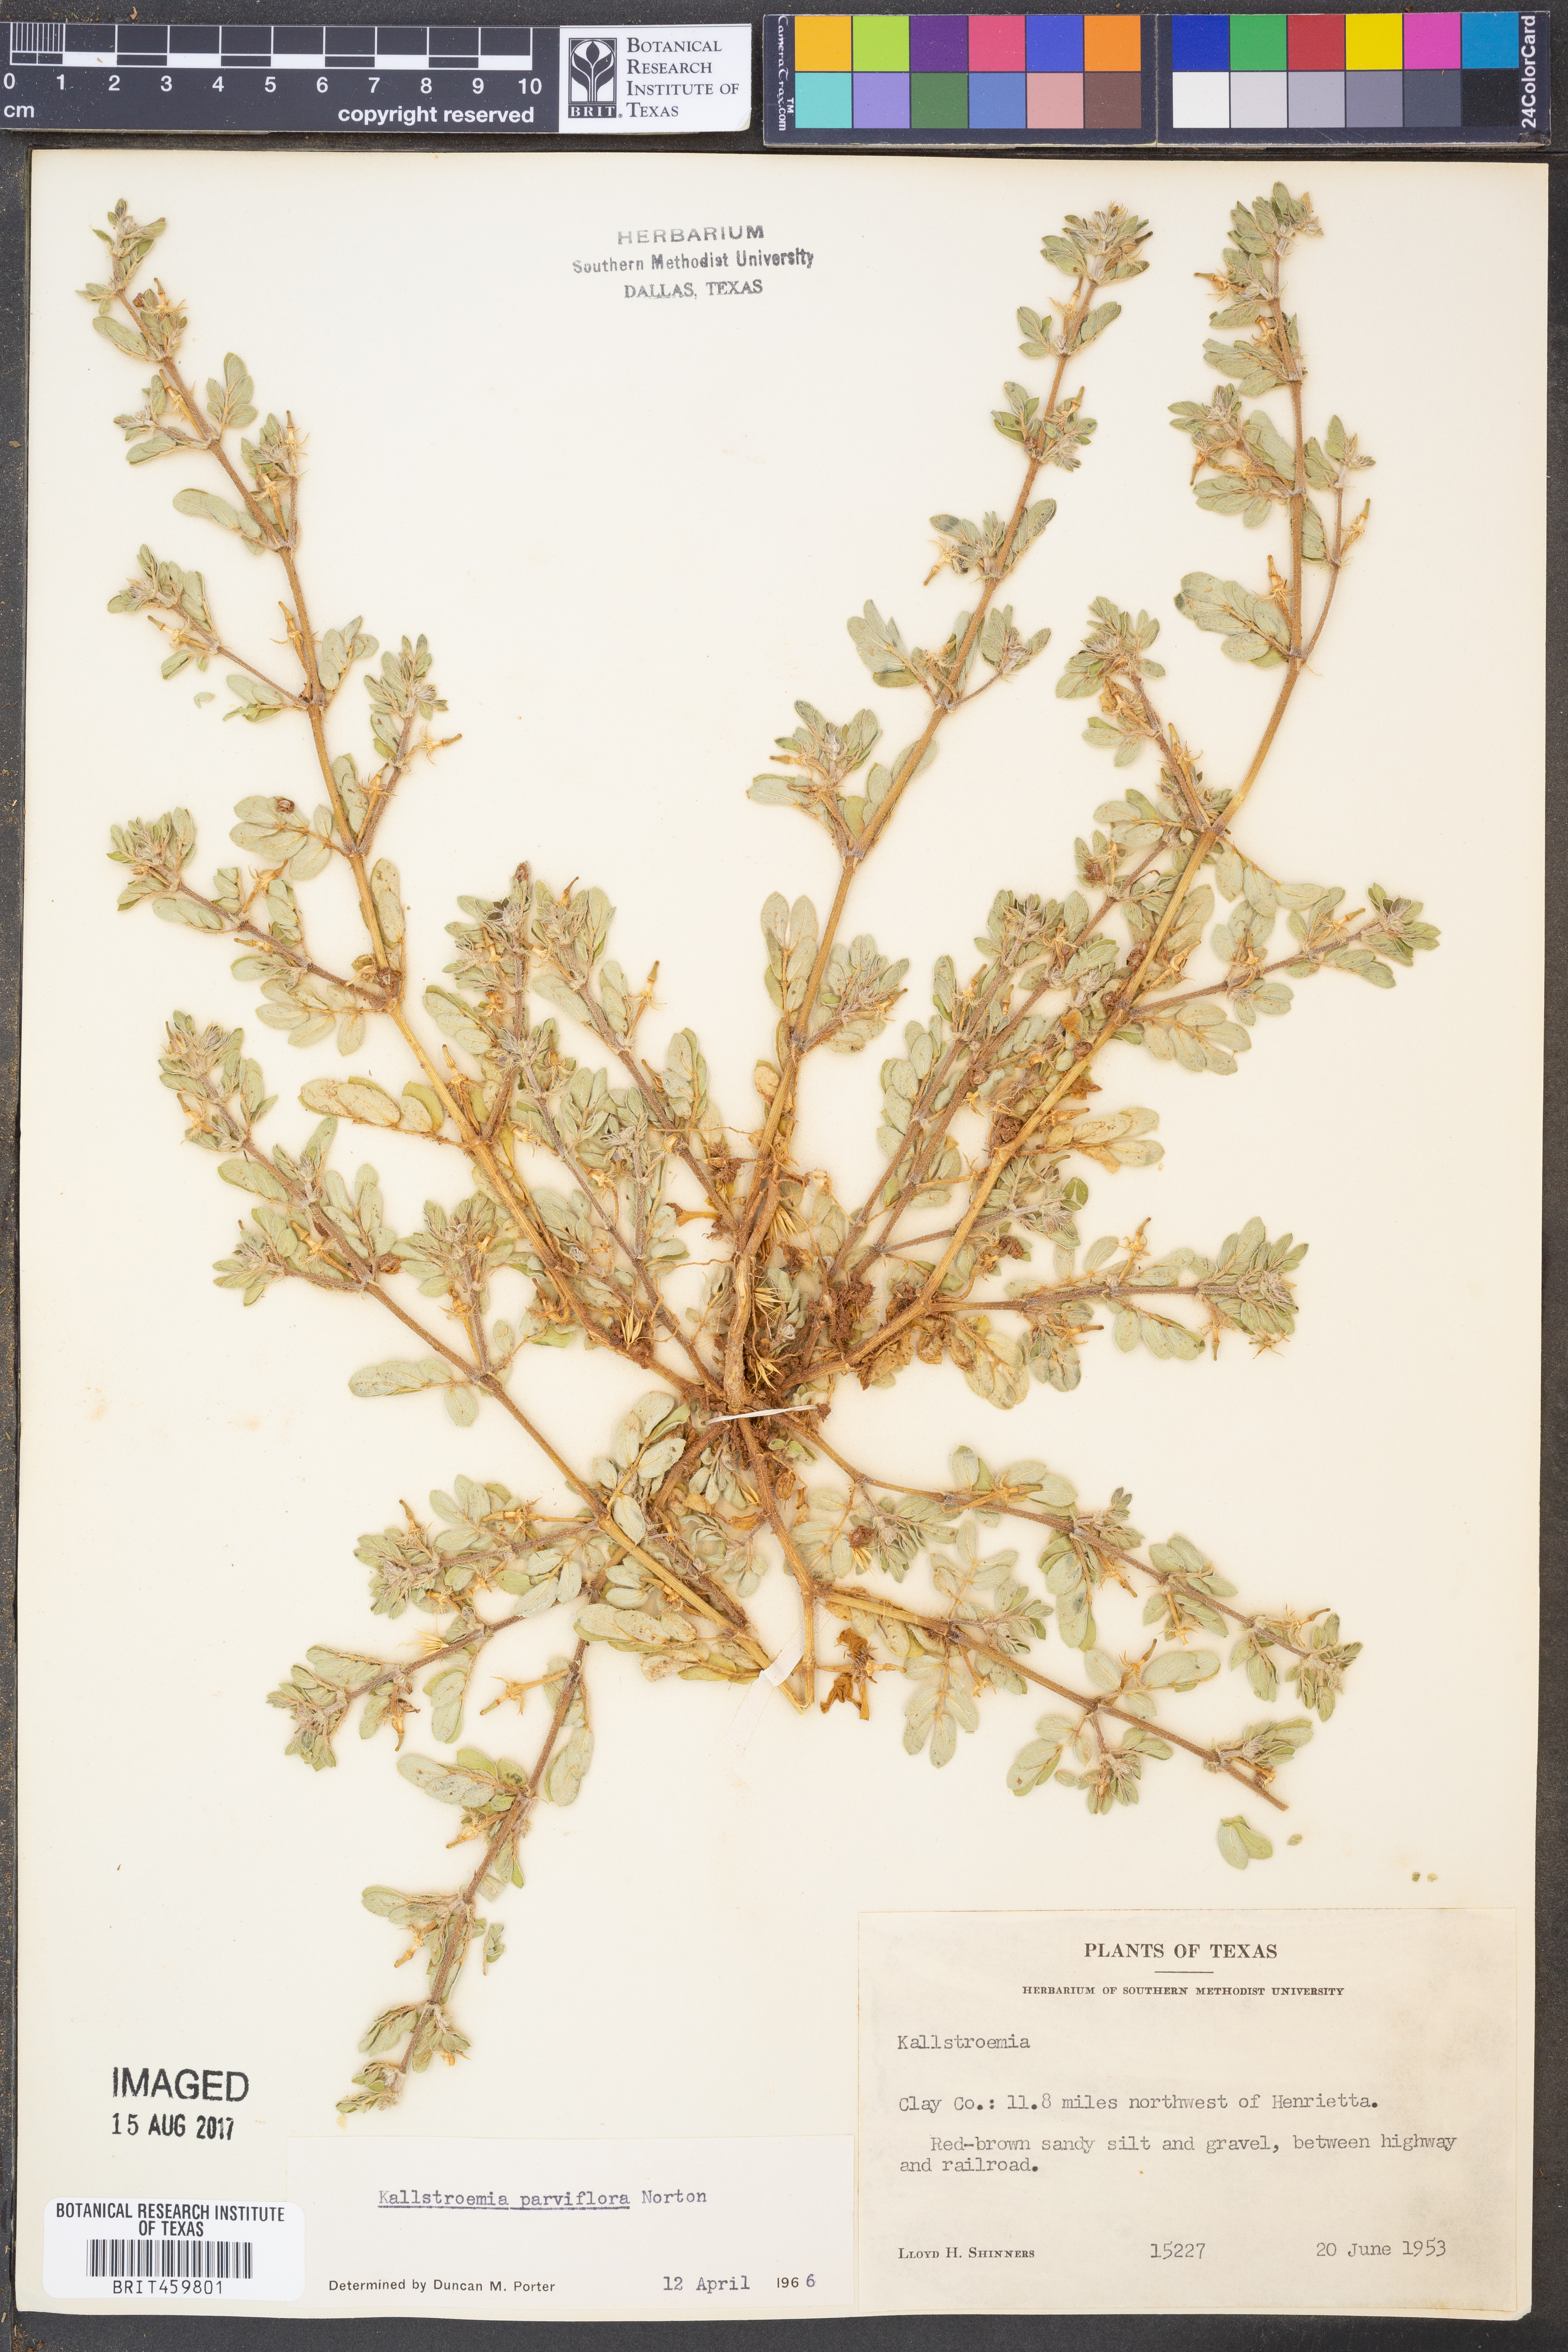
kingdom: Plantae
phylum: Tracheophyta
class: Magnoliopsida
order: Zygophyllales
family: Zygophyllaceae
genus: Kallstroemia
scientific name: Kallstroemia parviflora
